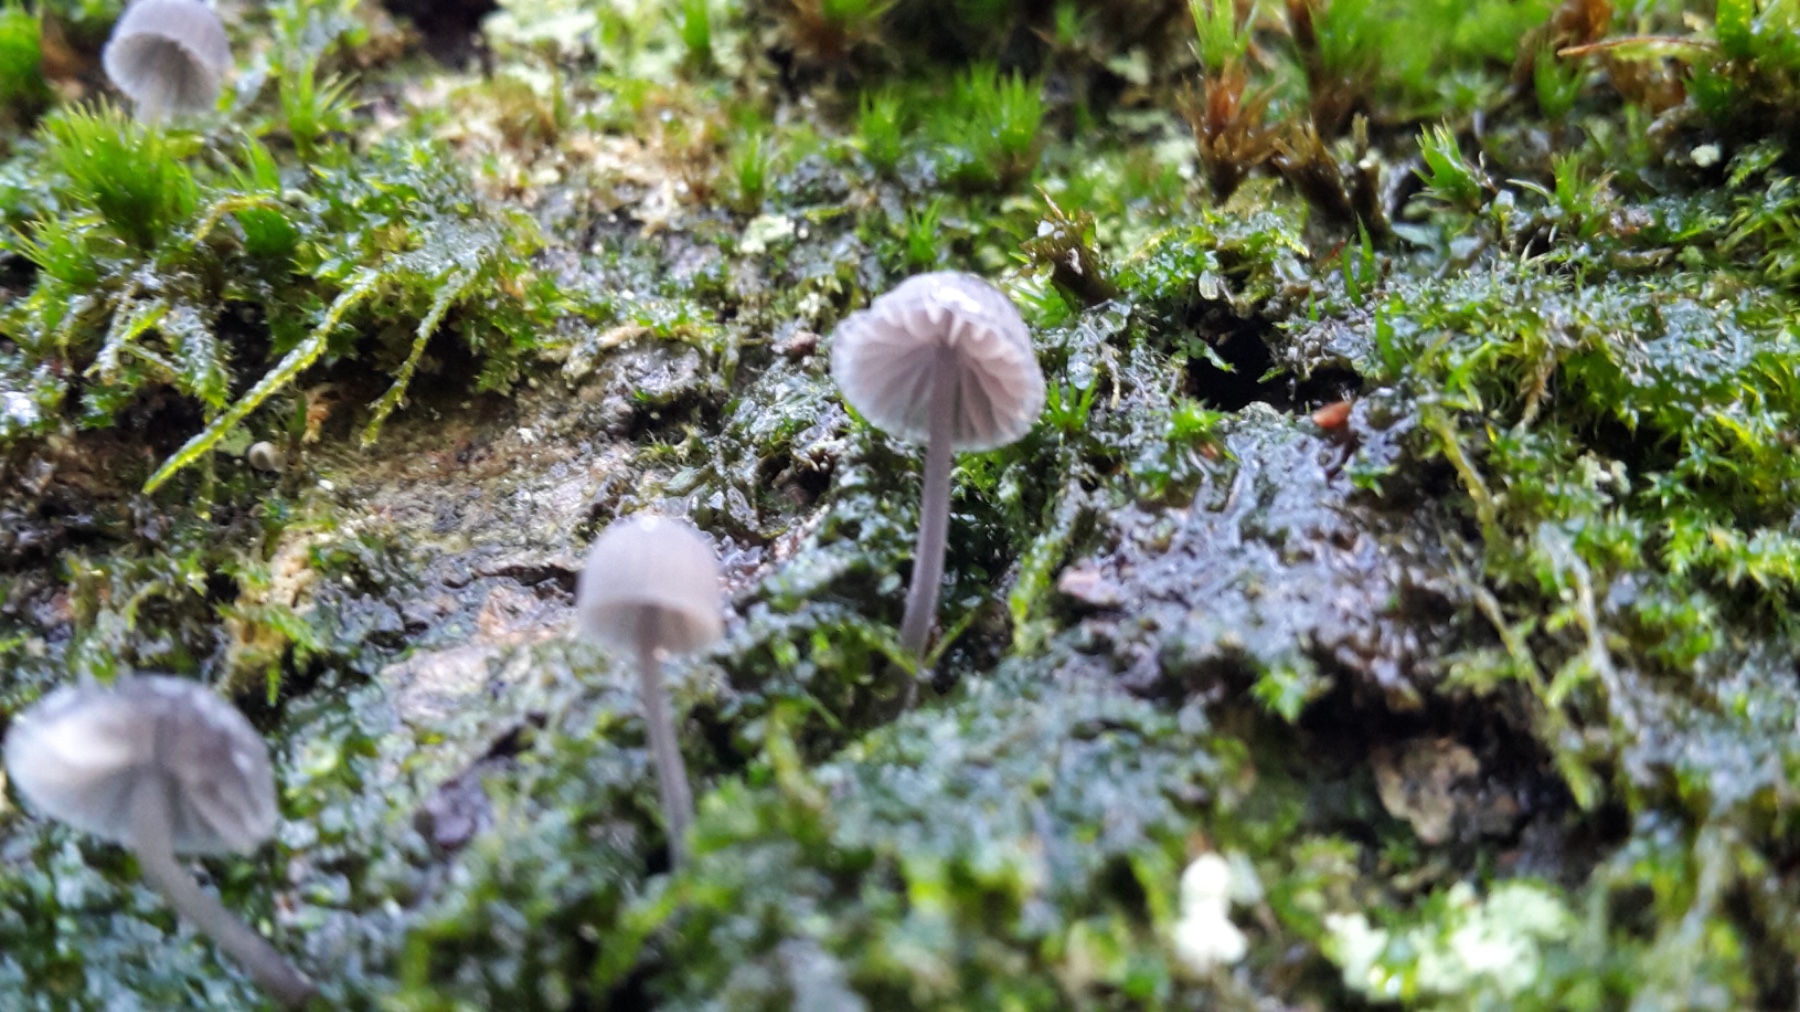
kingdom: Fungi
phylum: Basidiomycota
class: Agaricomycetes
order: Agaricales
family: Mycenaceae
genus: Mycena
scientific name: Mycena pseudocorticola
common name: gråblå bark-huesvamp
